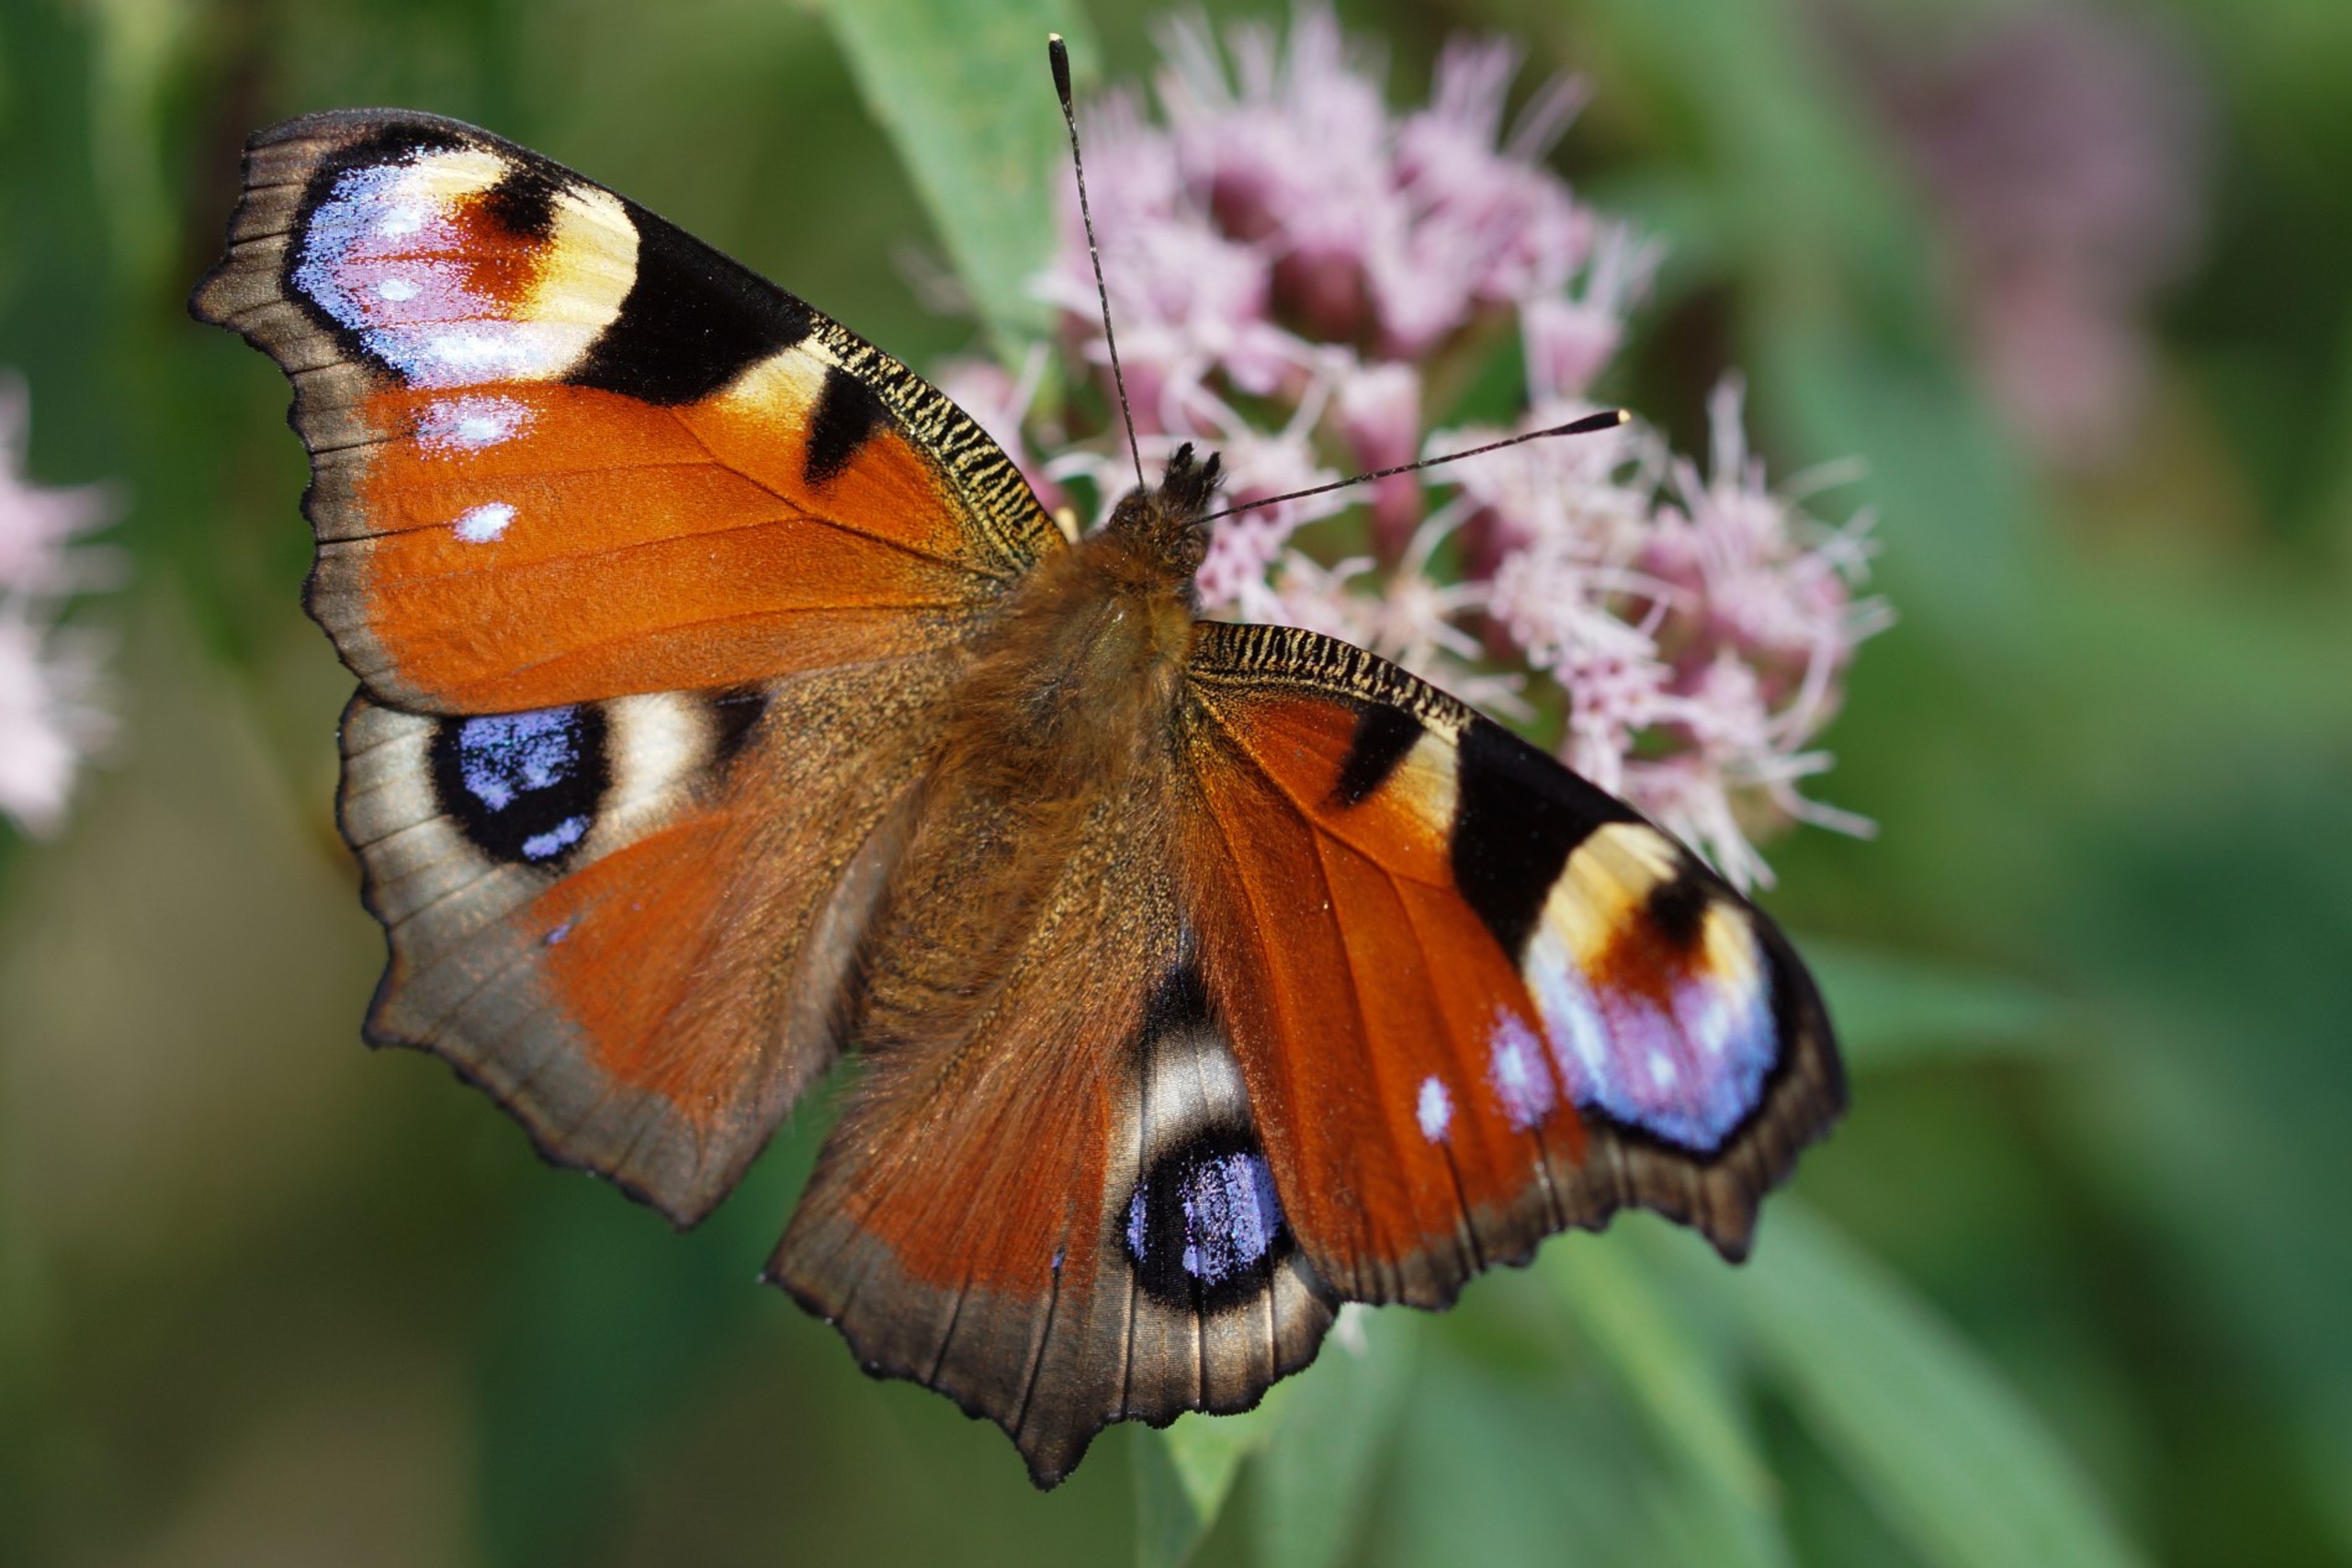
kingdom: Animalia
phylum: Arthropoda
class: Insecta
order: Lepidoptera
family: Nymphalidae
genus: Aglais
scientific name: Aglais io
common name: Dagpåfugleøje
